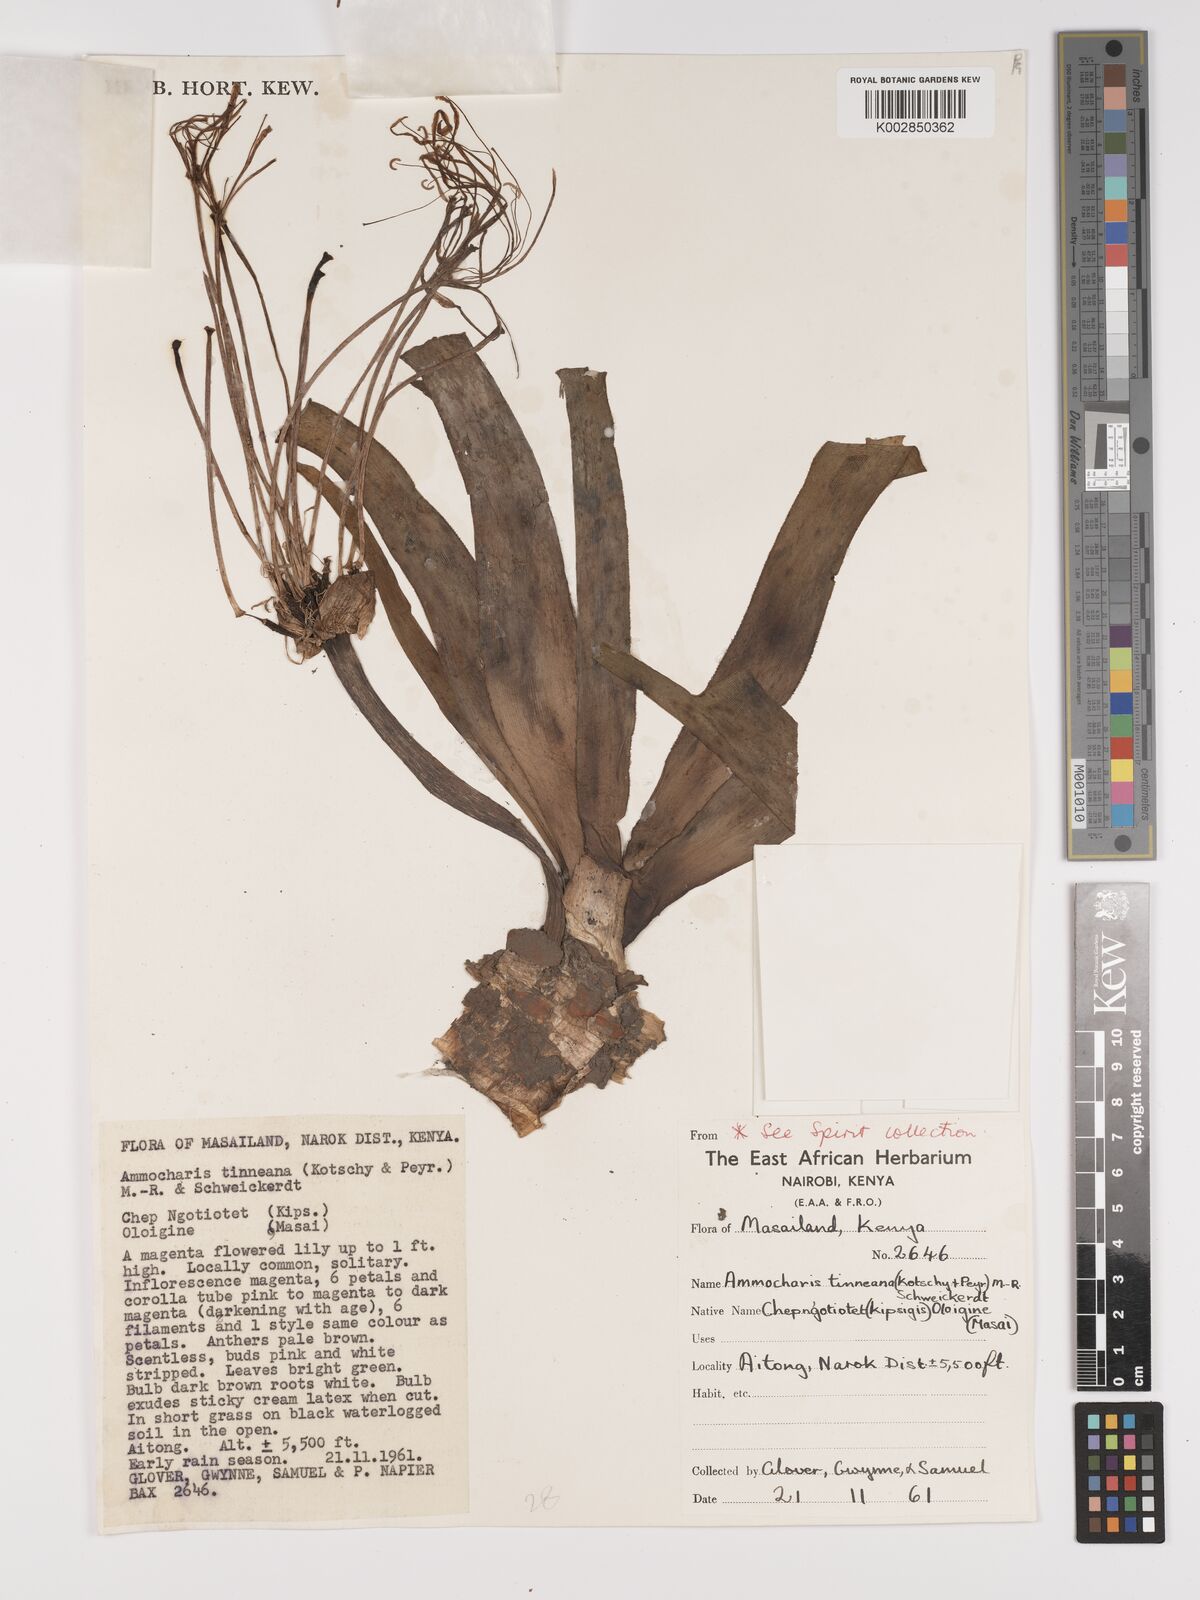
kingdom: Plantae
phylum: Tracheophyta
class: Liliopsida
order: Asparagales
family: Amaryllidaceae
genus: Ammocharis
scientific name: Ammocharis tinneana
